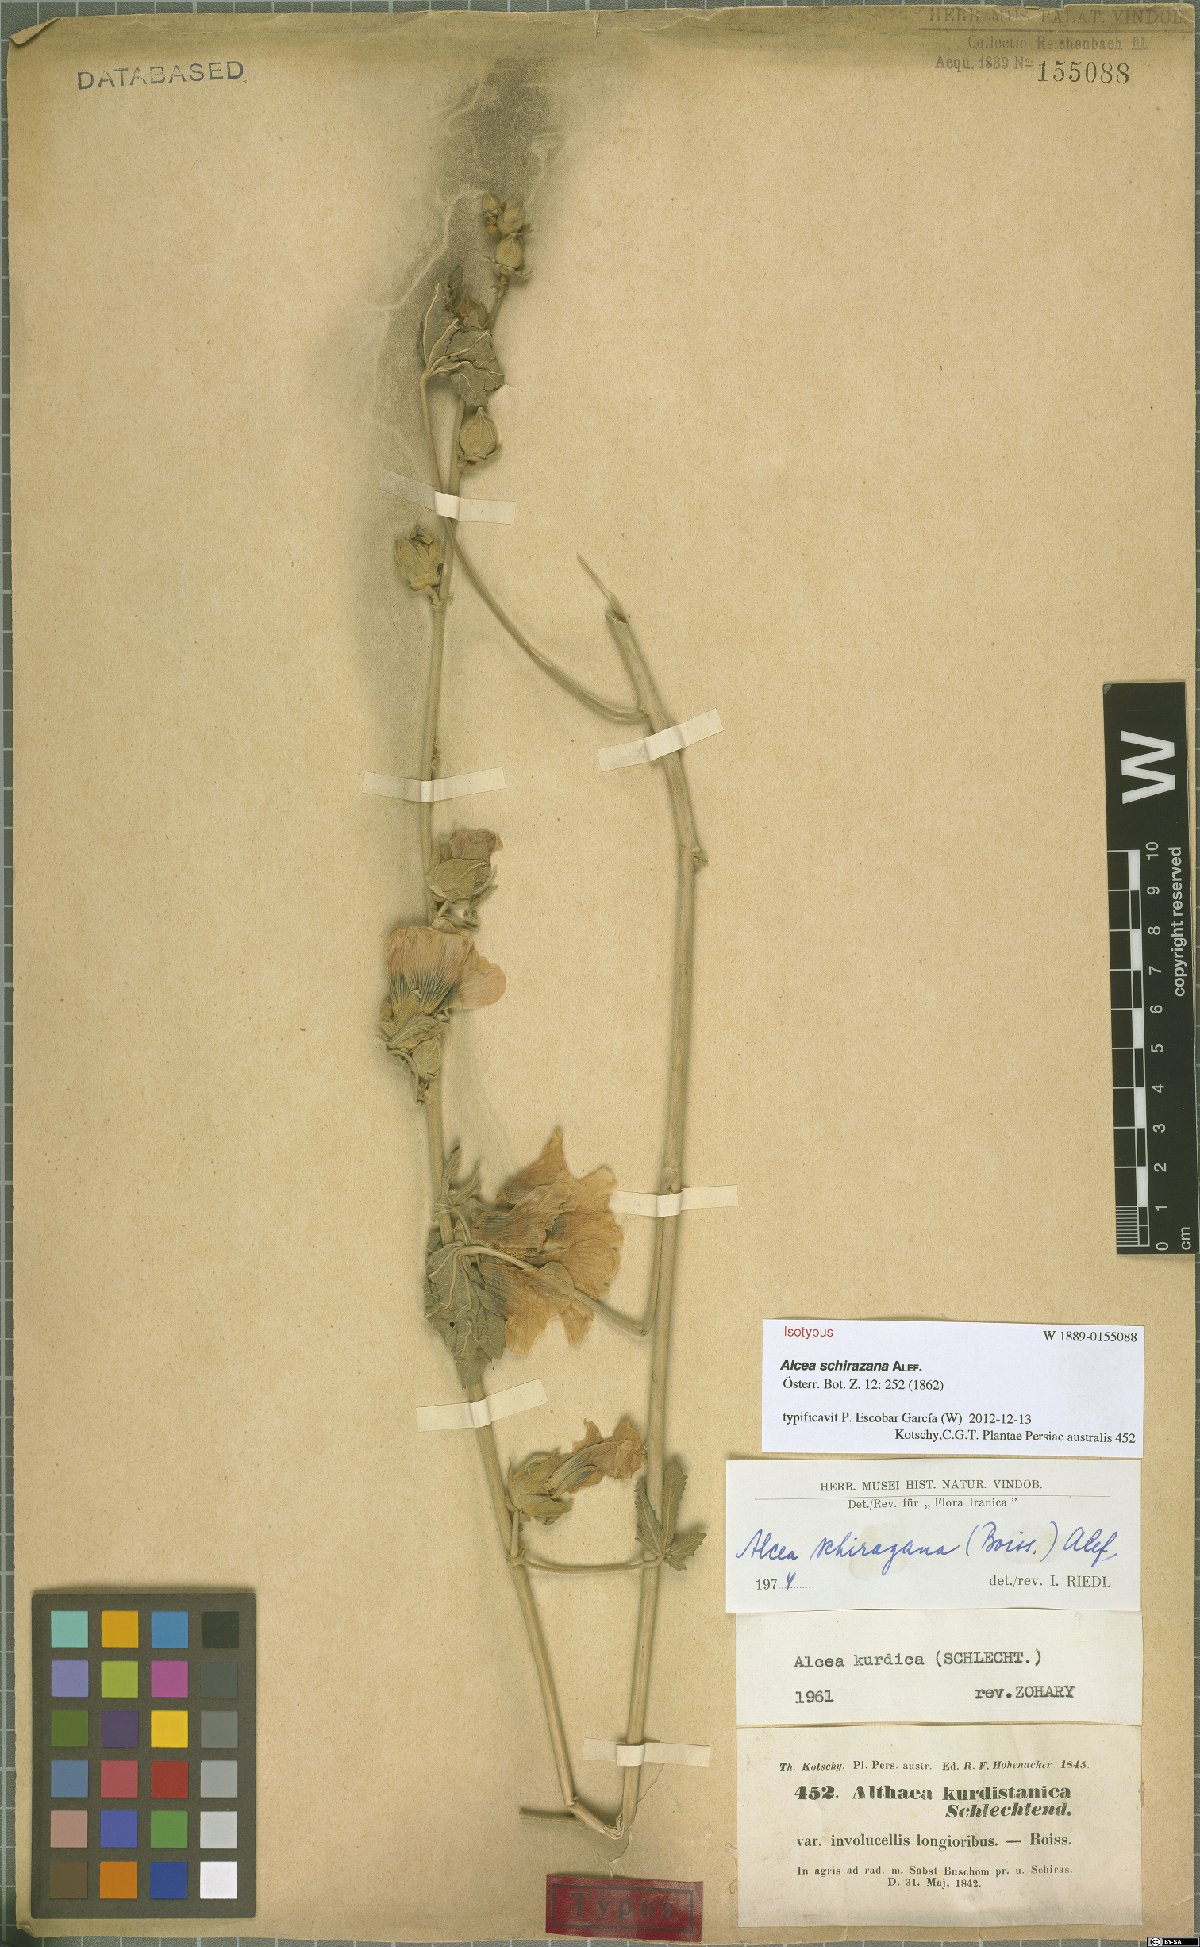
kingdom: Plantae
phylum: Tracheophyta
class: Magnoliopsida
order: Malvales
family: Malvaceae
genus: Alcea
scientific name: Alcea schirazana
